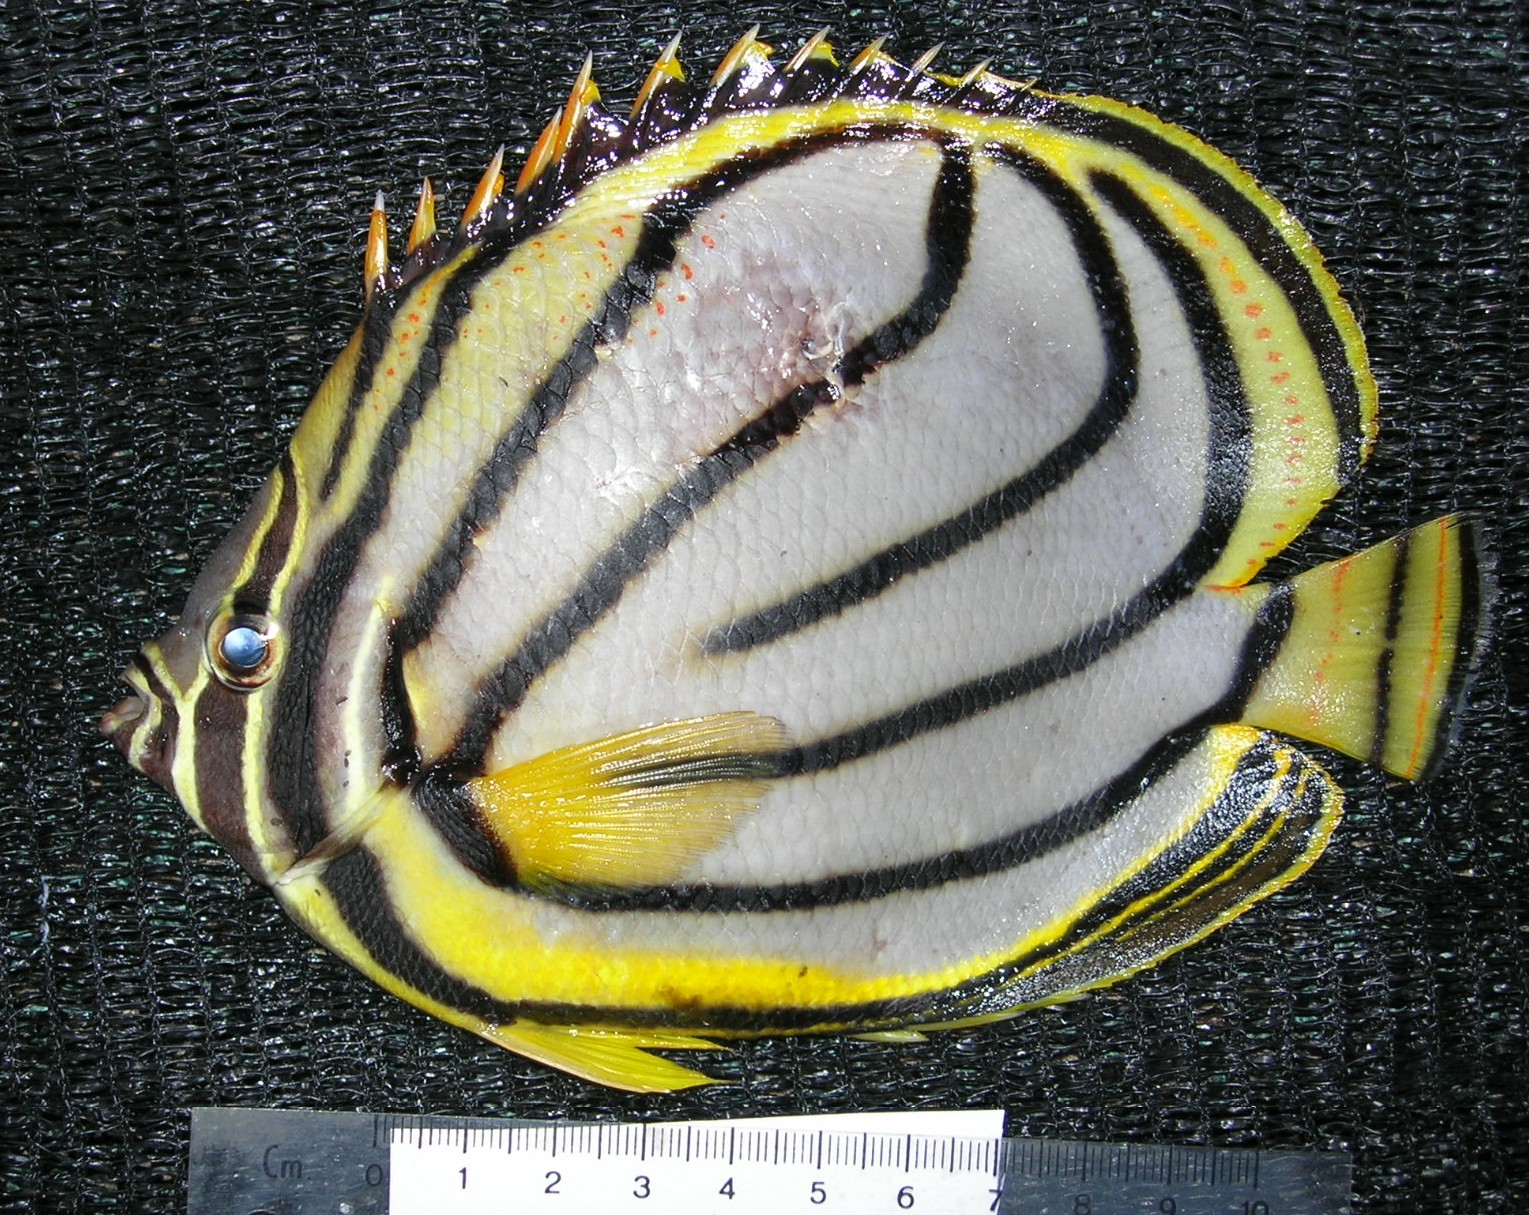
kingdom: Animalia
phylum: Chordata
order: Perciformes
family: Chaetodontidae
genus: Chaetodon
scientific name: Chaetodon mitratus
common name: Indian butterflyfish
